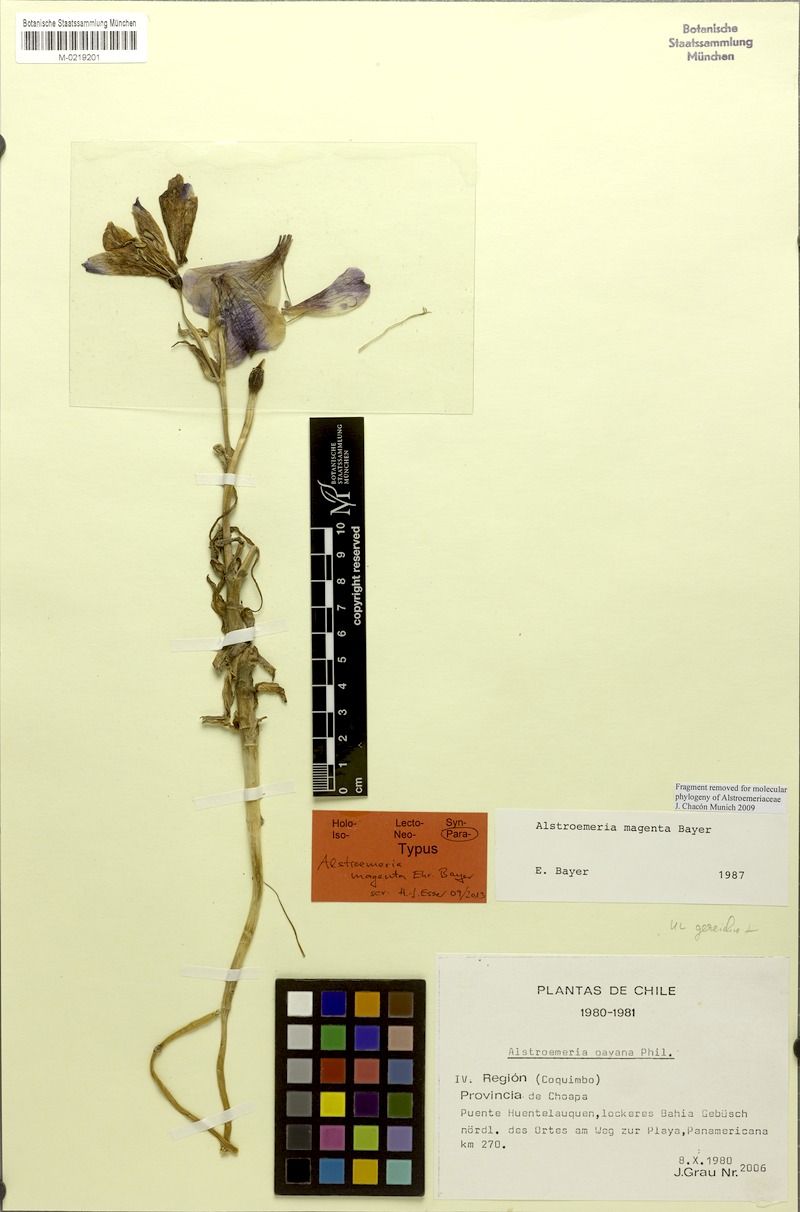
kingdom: Plantae
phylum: Tracheophyta
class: Liliopsida
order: Liliales
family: Alstroemeriaceae
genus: Alstroemeria
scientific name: Alstroemeria magnifica
